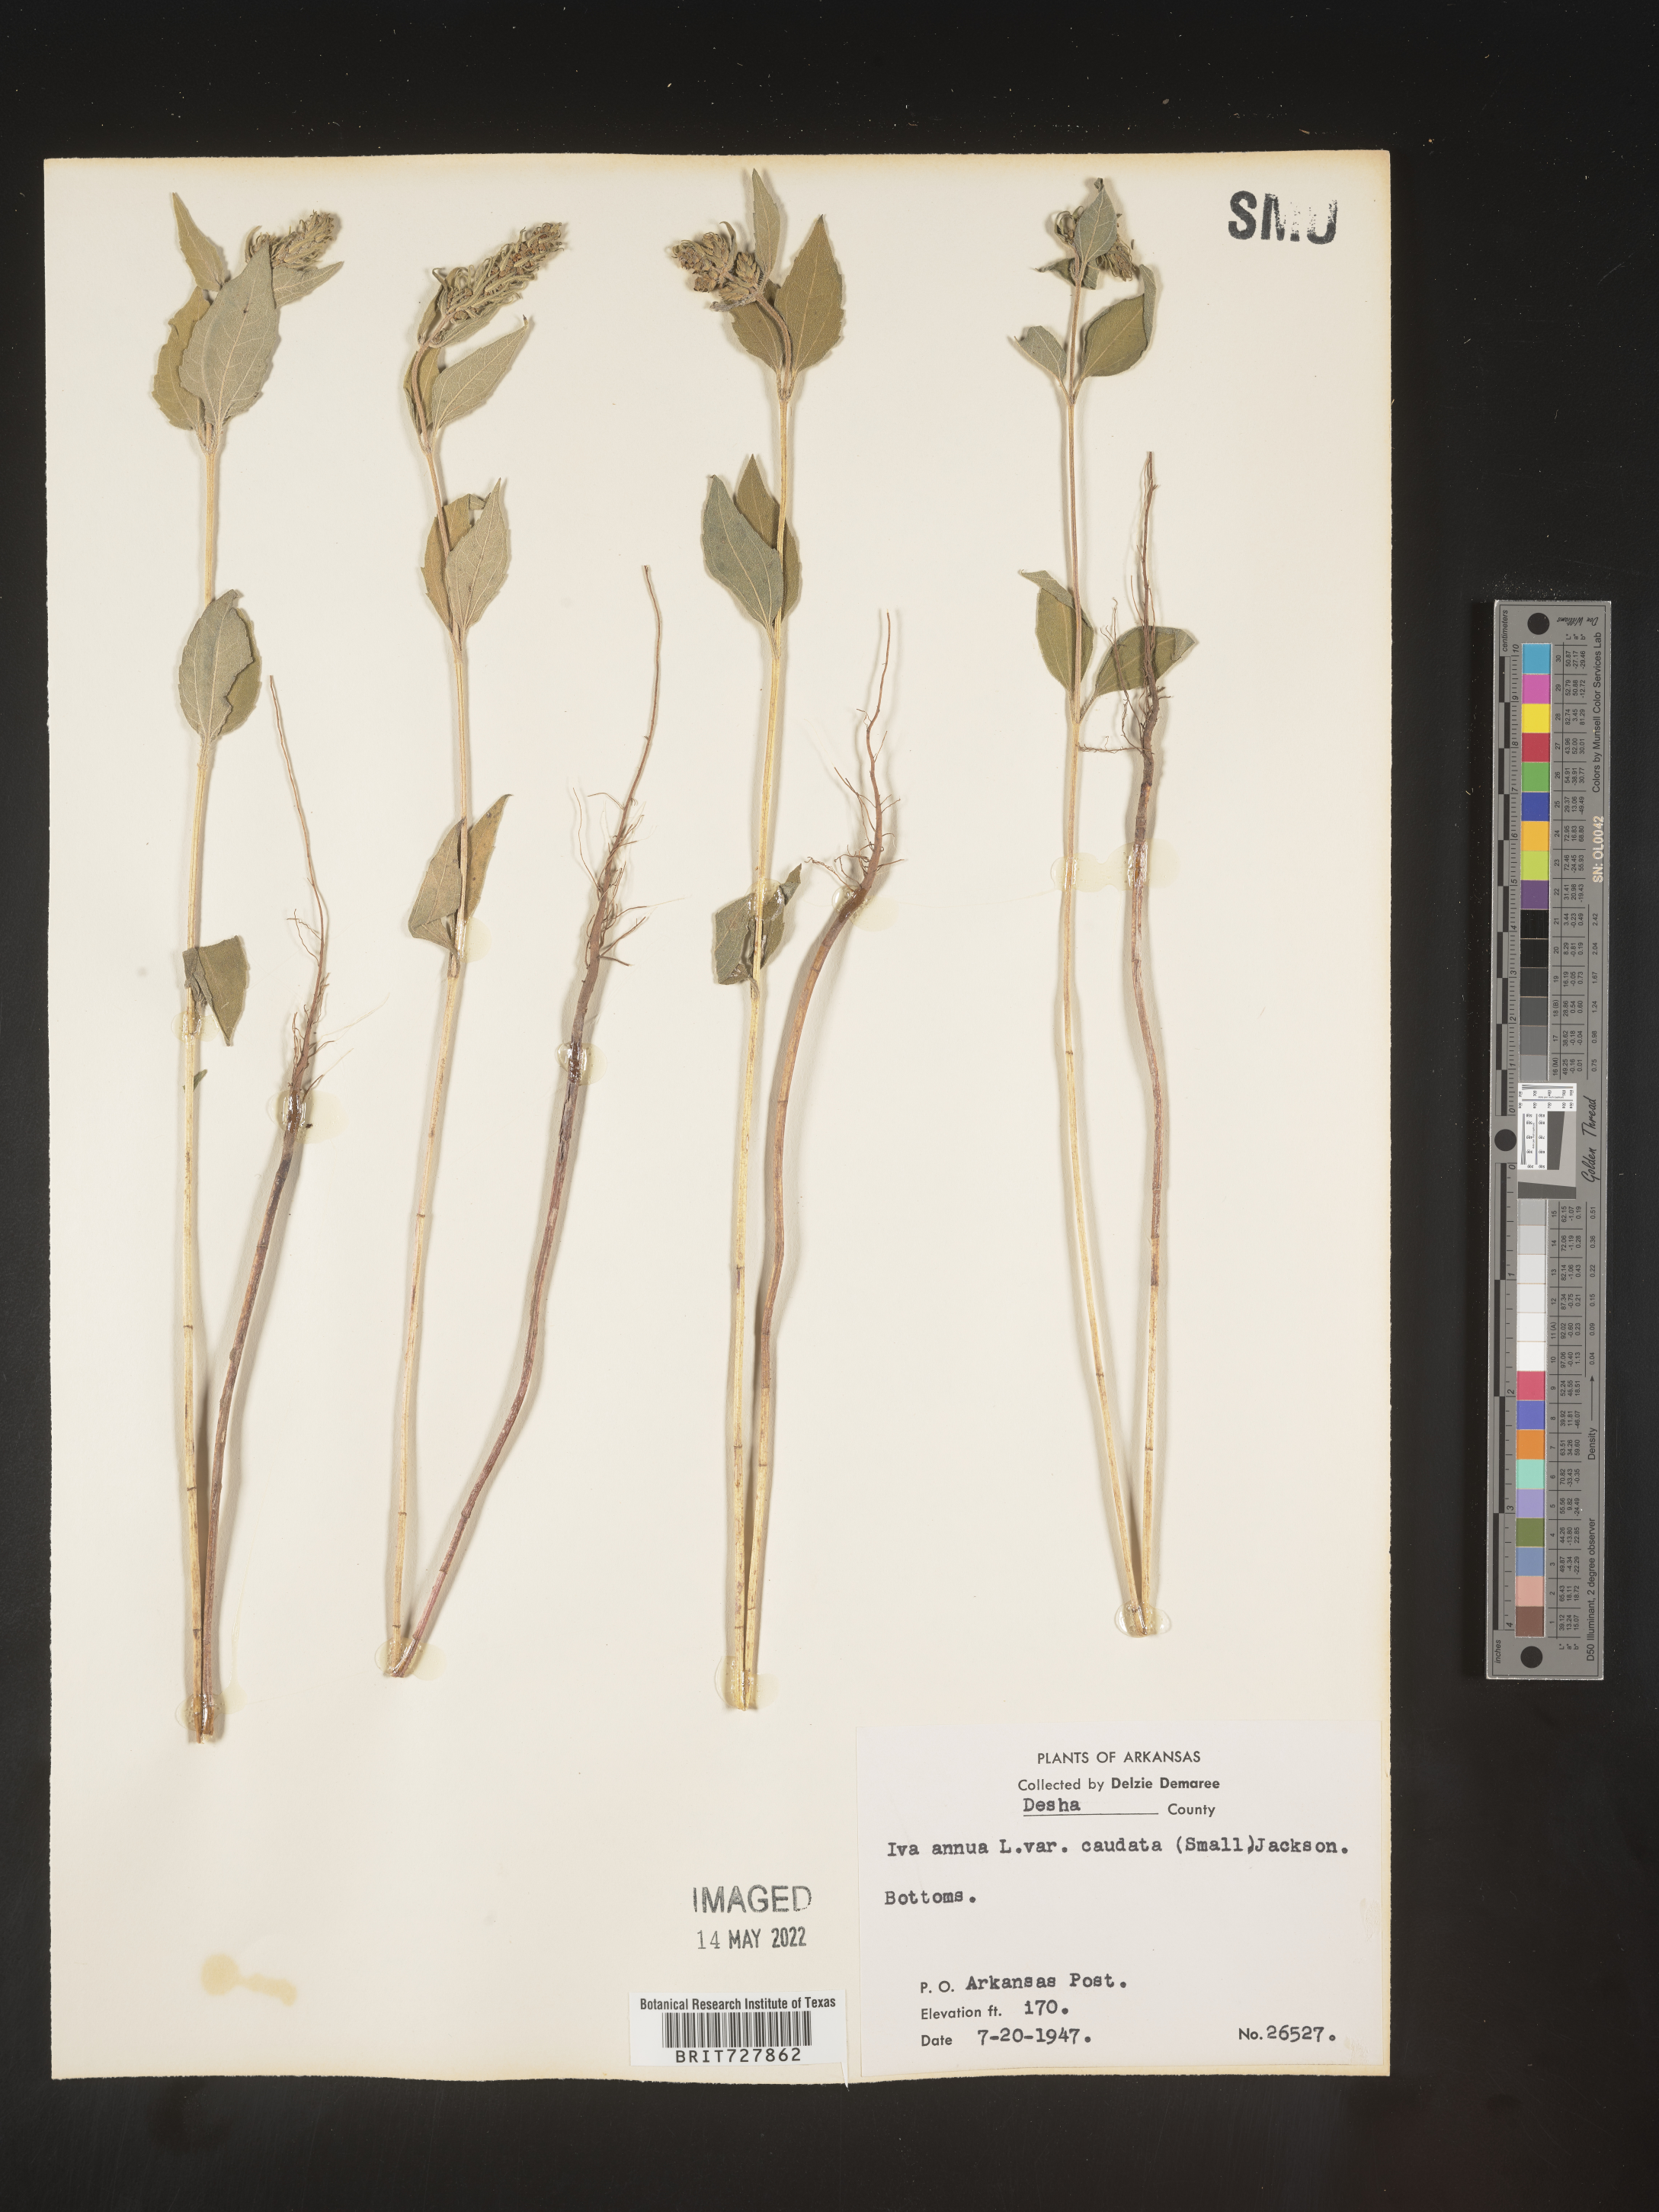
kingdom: Plantae
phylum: Tracheophyta
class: Magnoliopsida
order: Asterales
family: Asteraceae
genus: Iva
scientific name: Iva annua
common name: Marsh-elder
